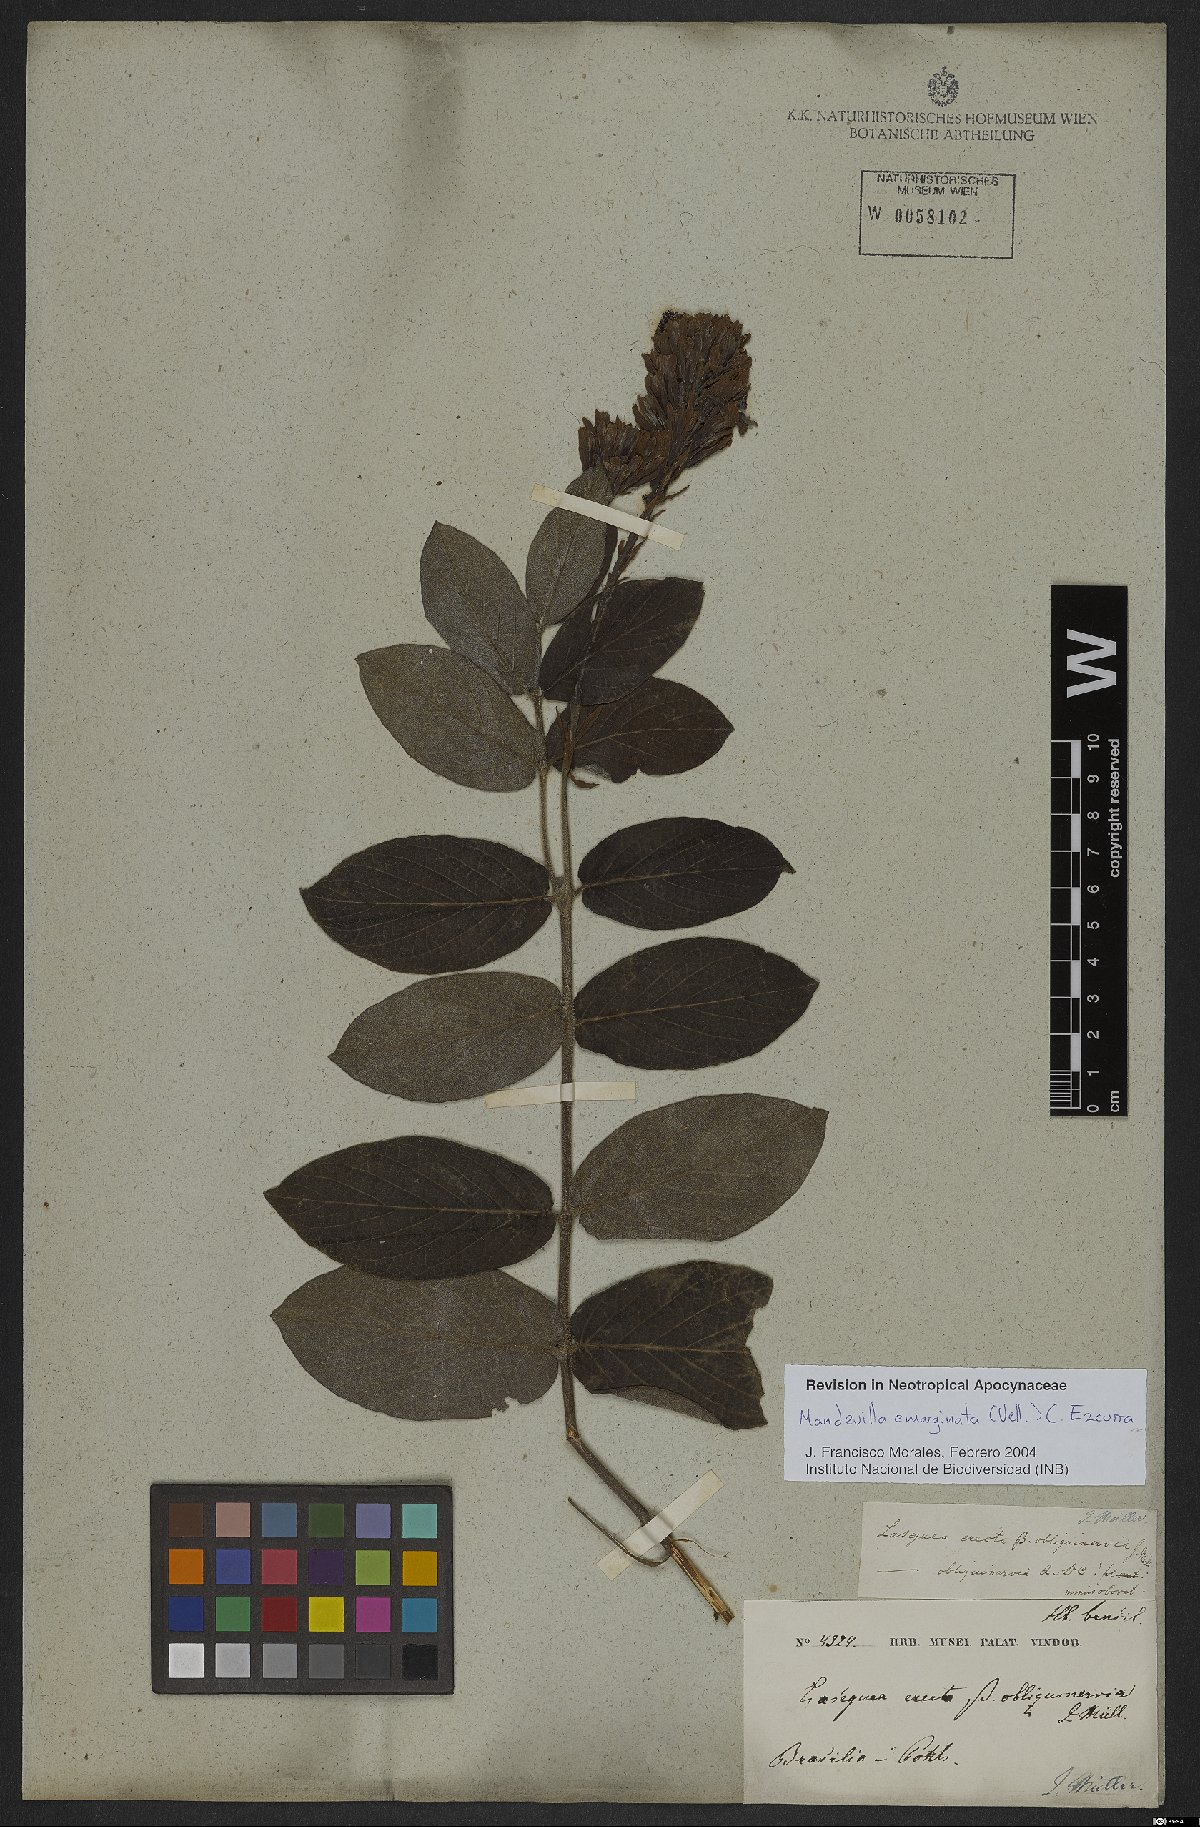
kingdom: Plantae
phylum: Tracheophyta
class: Magnoliopsida
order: Gentianales
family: Apocynaceae
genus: Mandevilla
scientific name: Mandevilla emarginata
